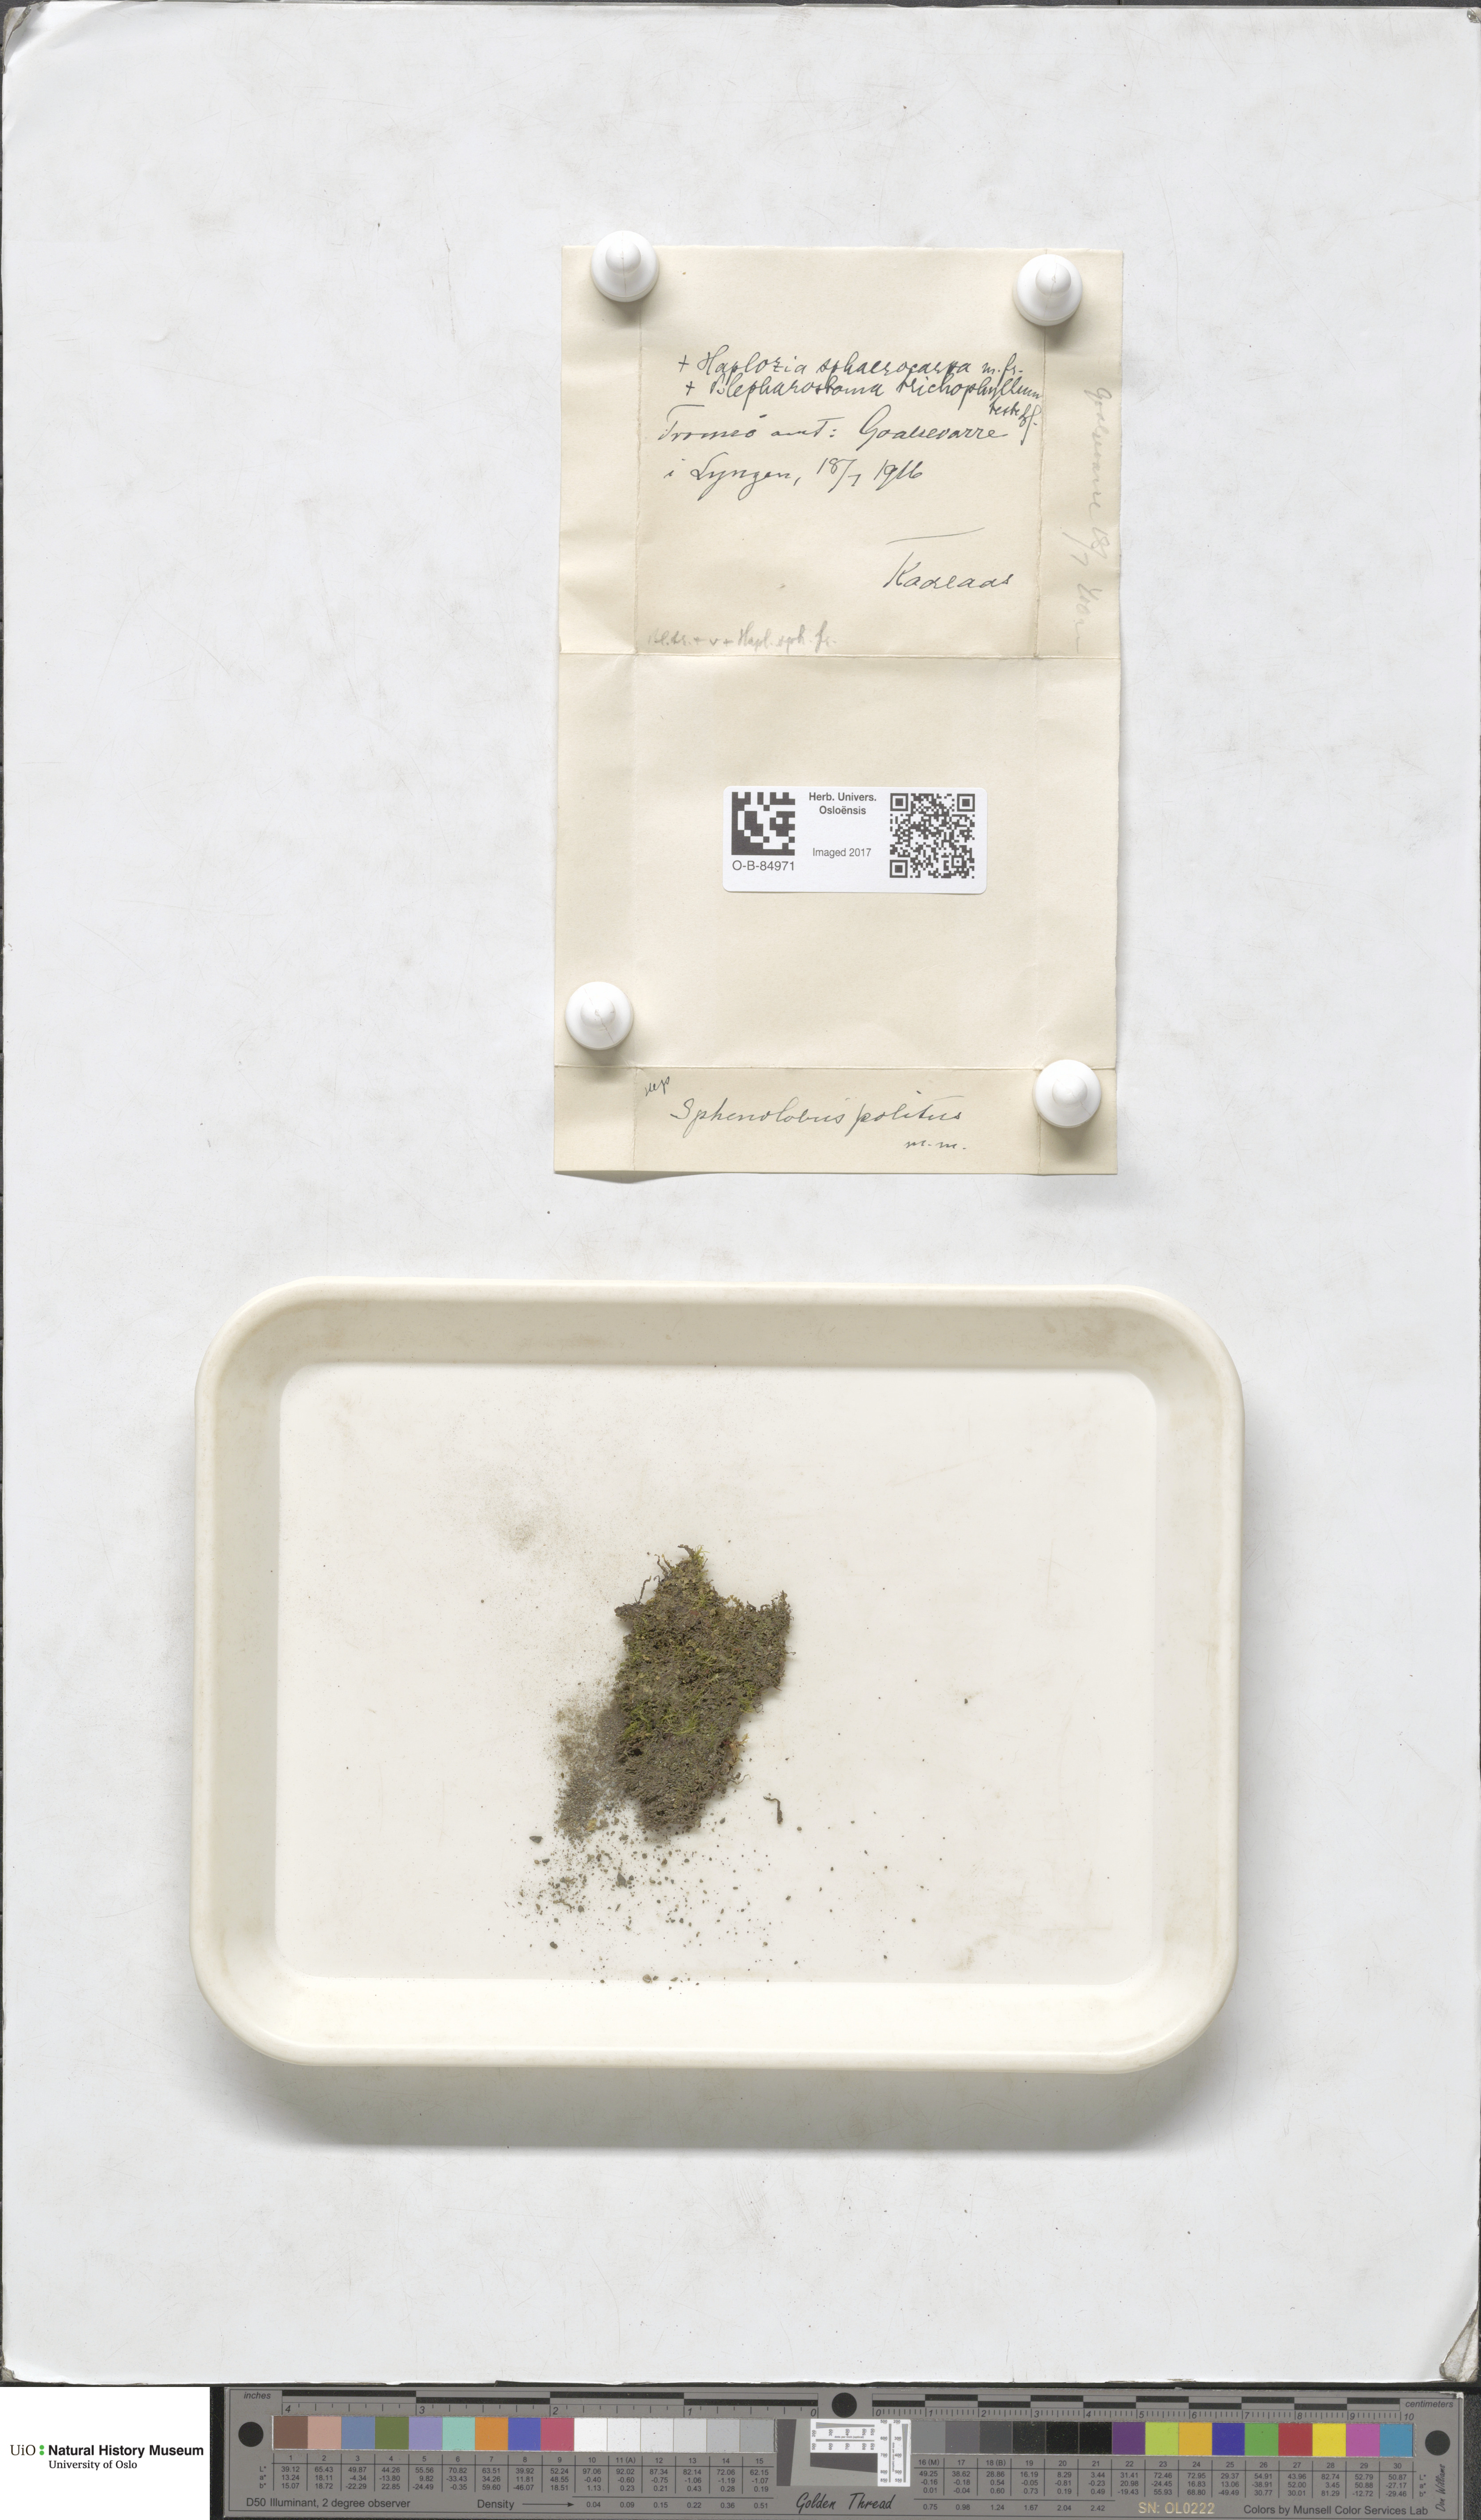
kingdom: Plantae
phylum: Marchantiophyta
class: Jungermanniopsida
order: Jungermanniales
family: Scapaniaceae
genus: Saccobasis
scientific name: Saccobasis polita
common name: Flush notchwort
